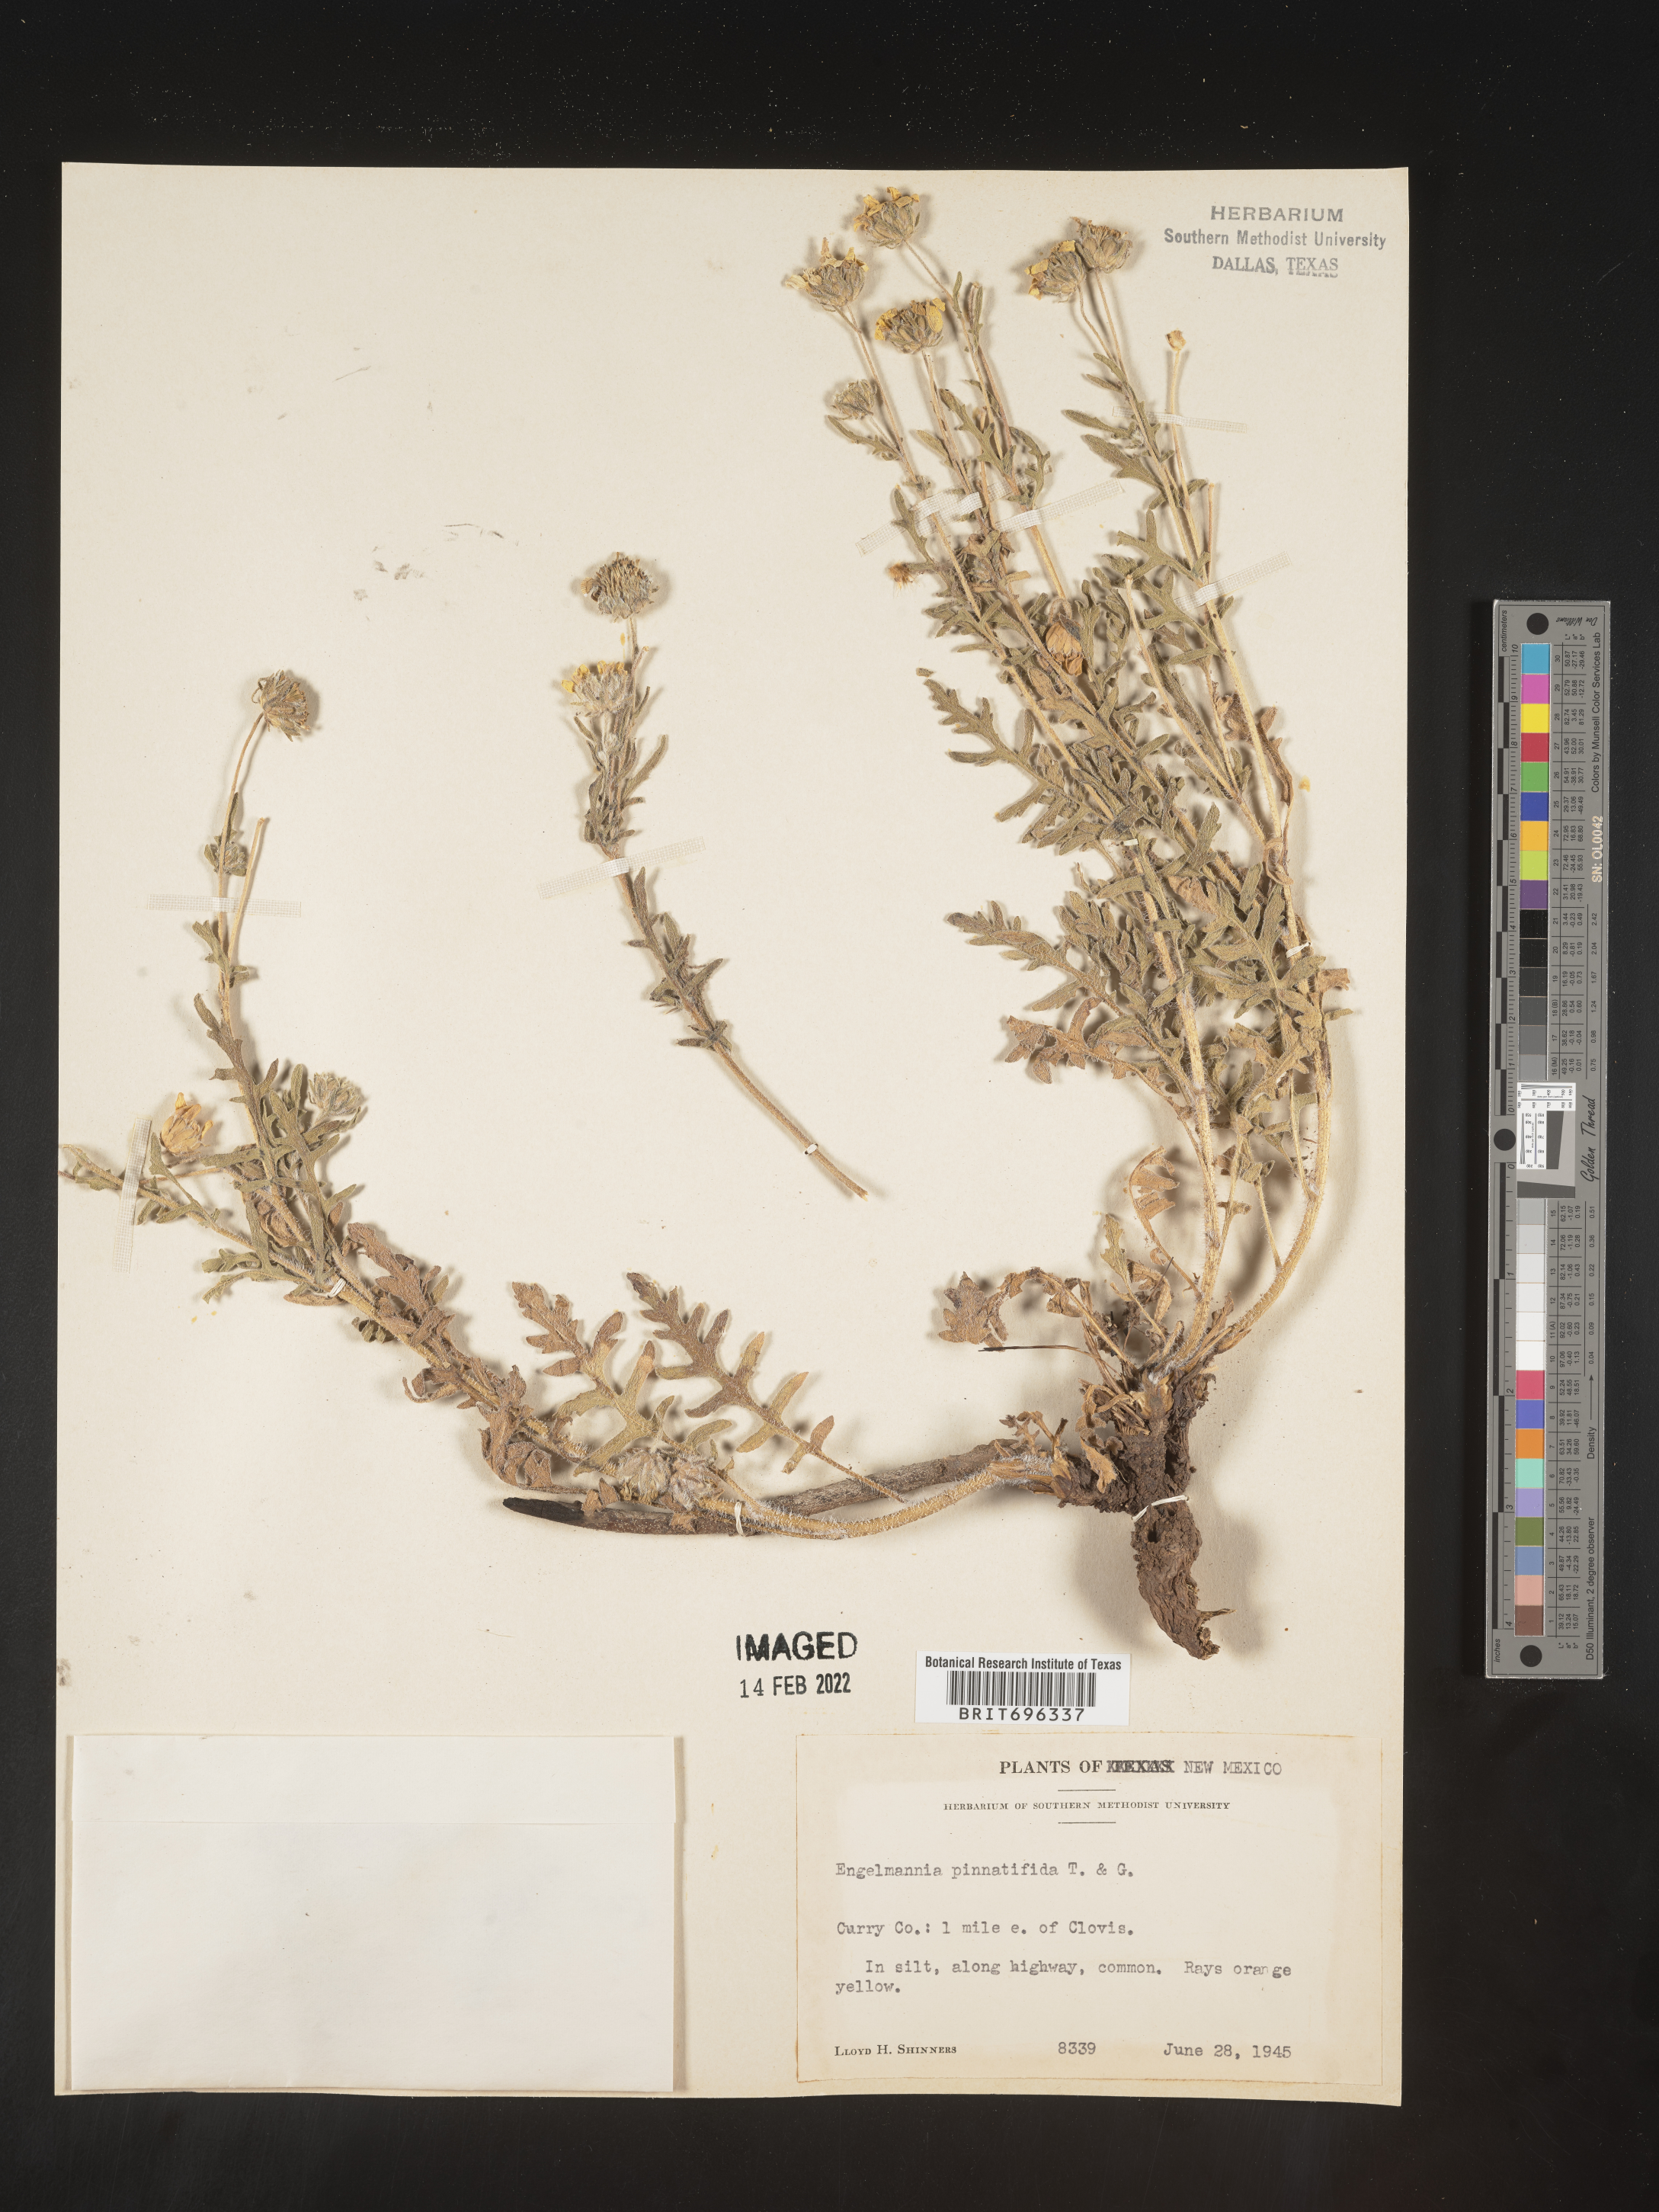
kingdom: Plantae
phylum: Tracheophyta
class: Magnoliopsida
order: Asterales
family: Asteraceae
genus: Engelmannia
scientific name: Engelmannia peristenia
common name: Engelmann's daisy
